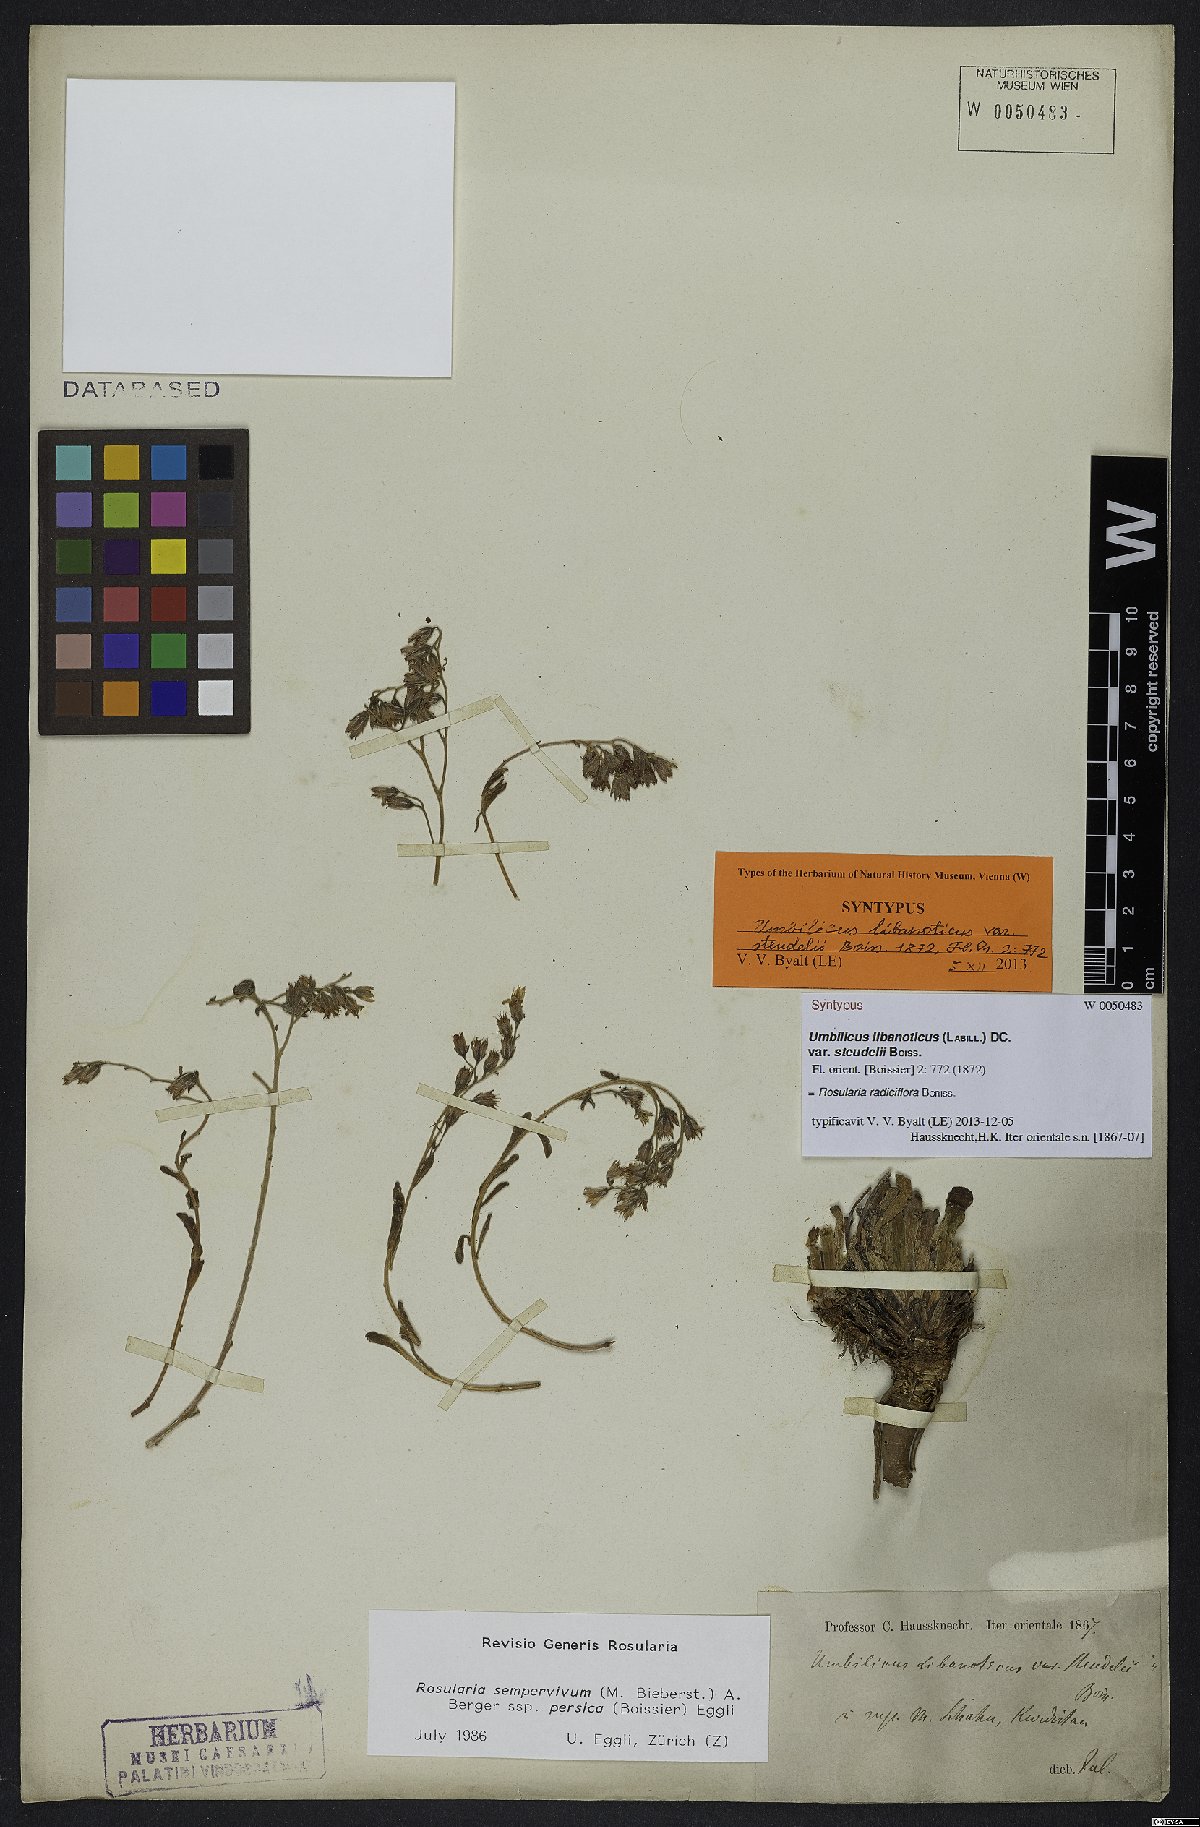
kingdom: Plantae
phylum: Tracheophyta
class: Magnoliopsida
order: Saxifragales
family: Crassulaceae
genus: Rosularia
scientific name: Rosularia sempervivum
